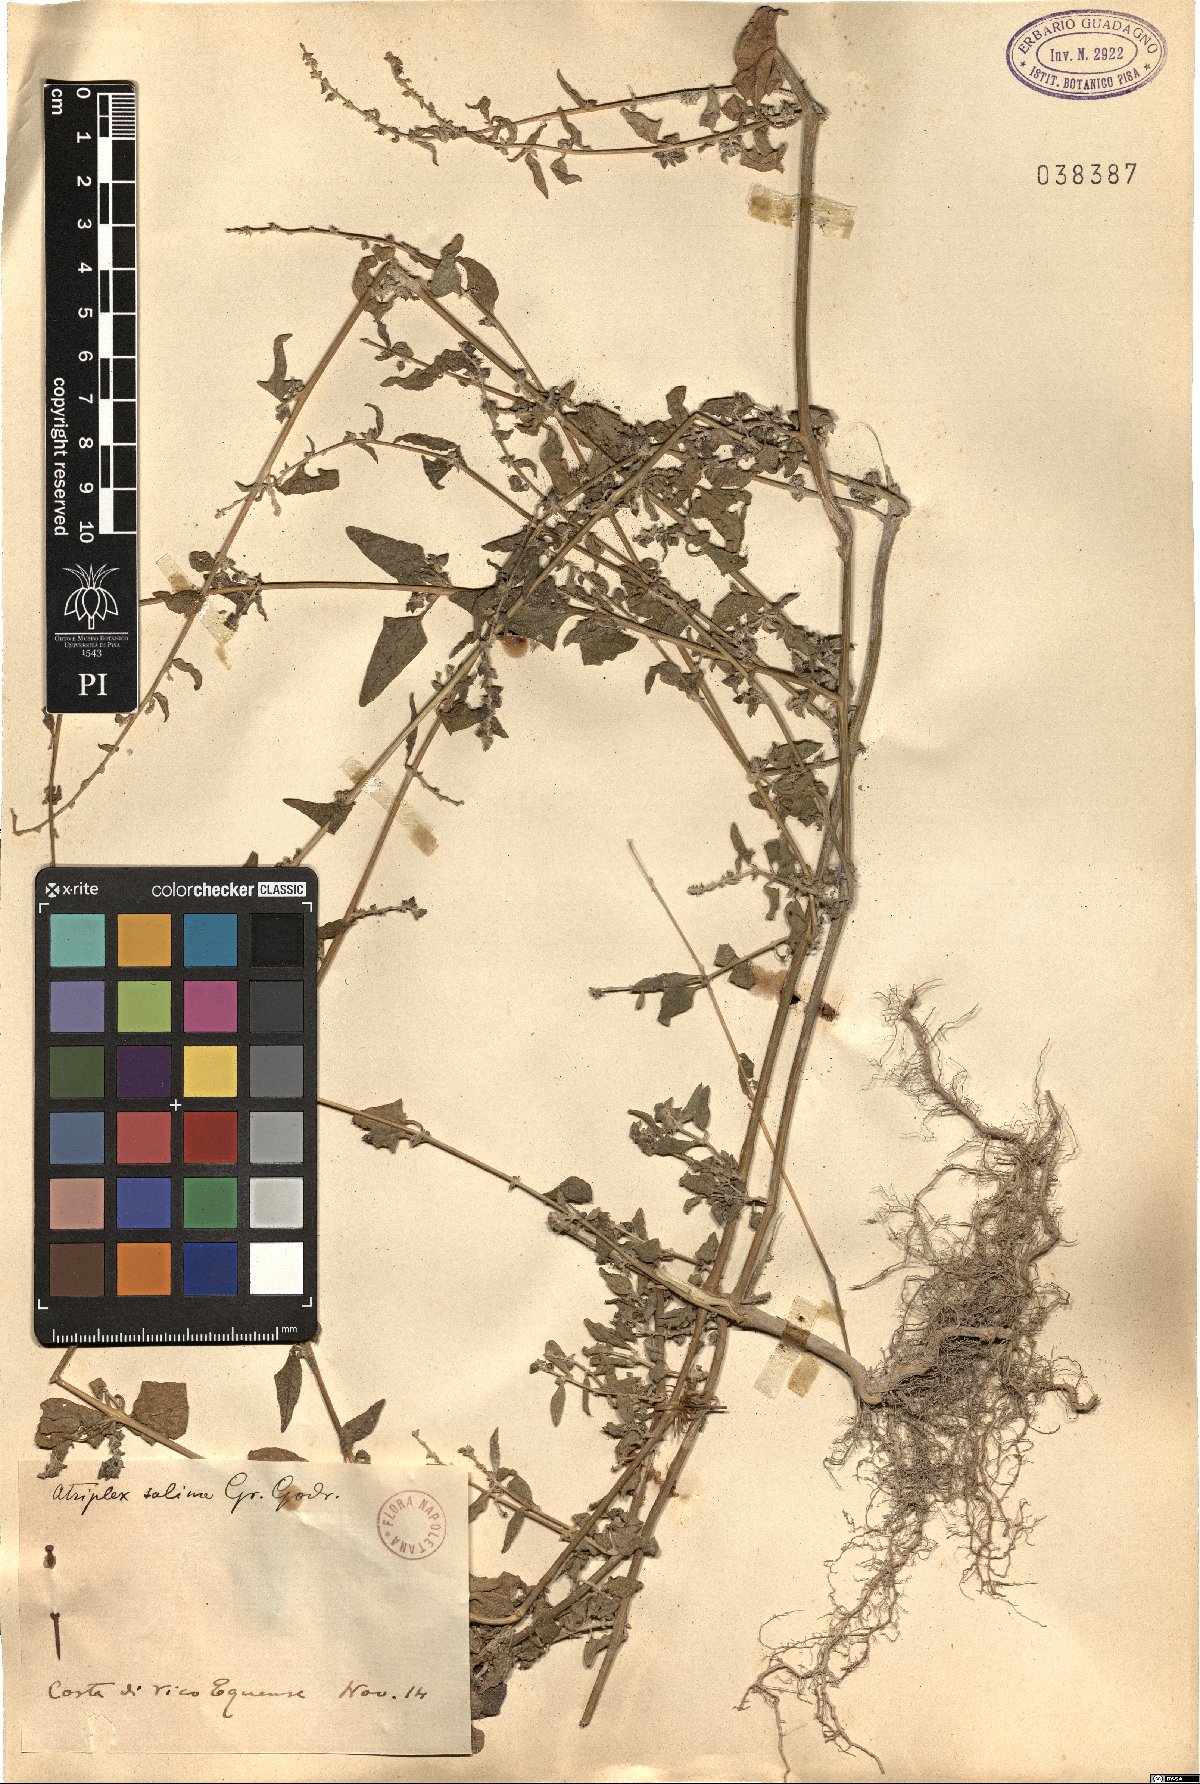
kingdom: Plantae
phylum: Tracheophyta
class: Magnoliopsida
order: Caryophyllales
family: Amaranthaceae
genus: Atriplex
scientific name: Atriplex
